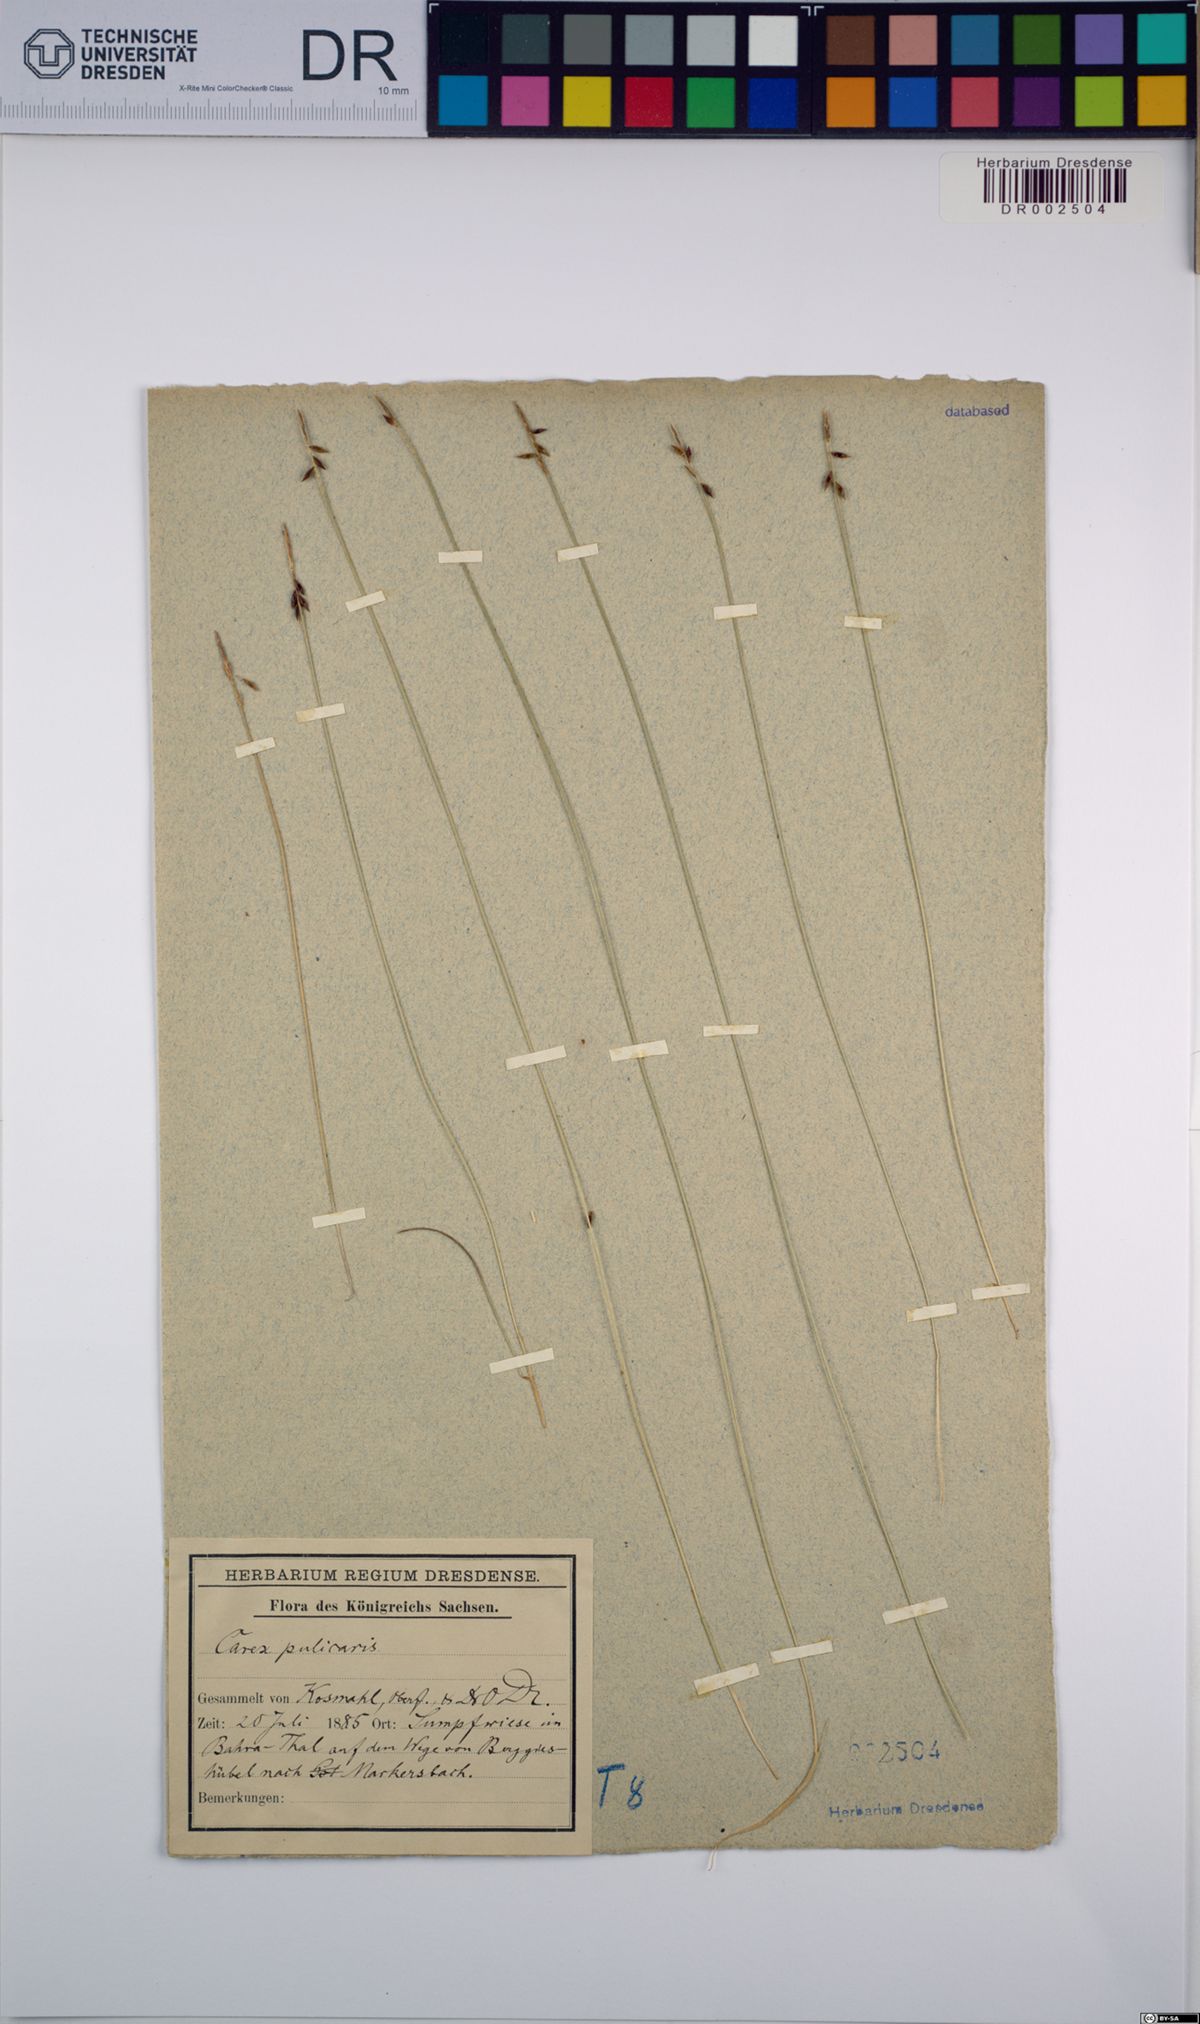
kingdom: Plantae
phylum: Tracheophyta
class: Liliopsida
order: Poales
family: Cyperaceae
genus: Carex
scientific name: Carex pulicaris
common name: Flea sedge
